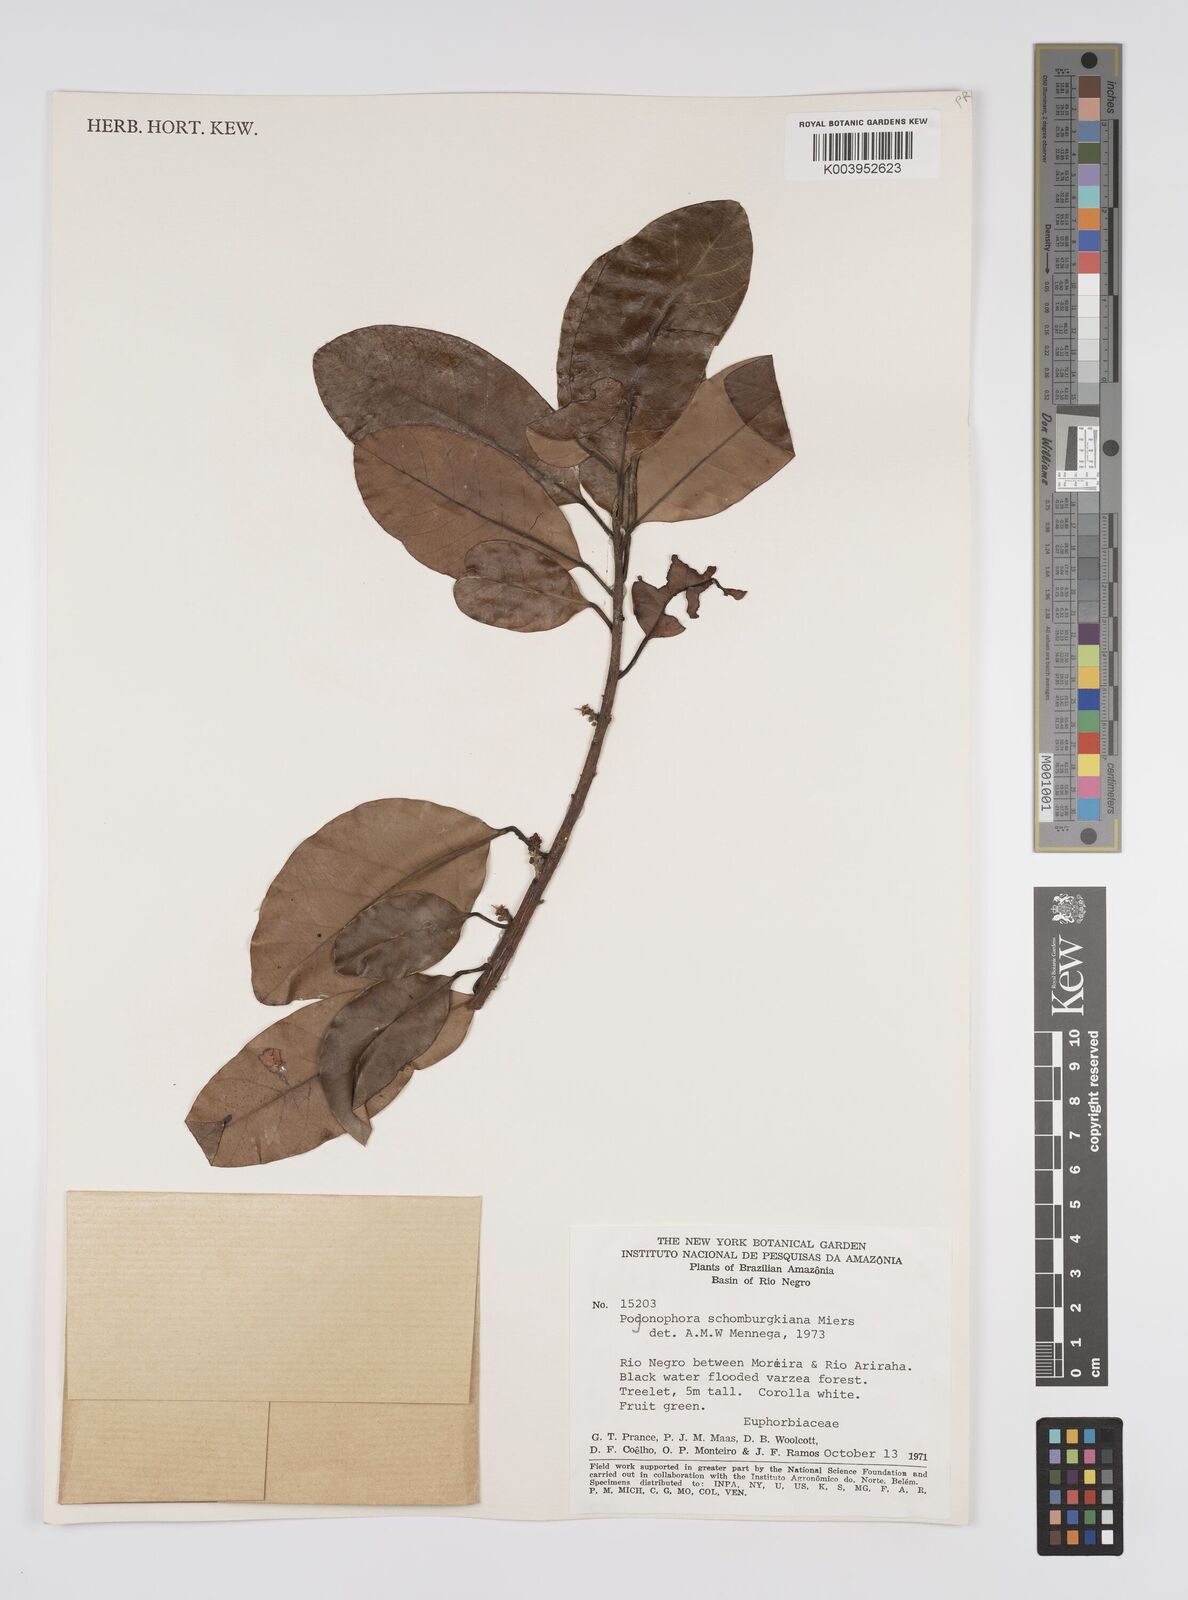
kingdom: Plantae
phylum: Tracheophyta
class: Magnoliopsida
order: Malpighiales
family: Peraceae
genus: Pogonophora
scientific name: Pogonophora schomburgkiana
